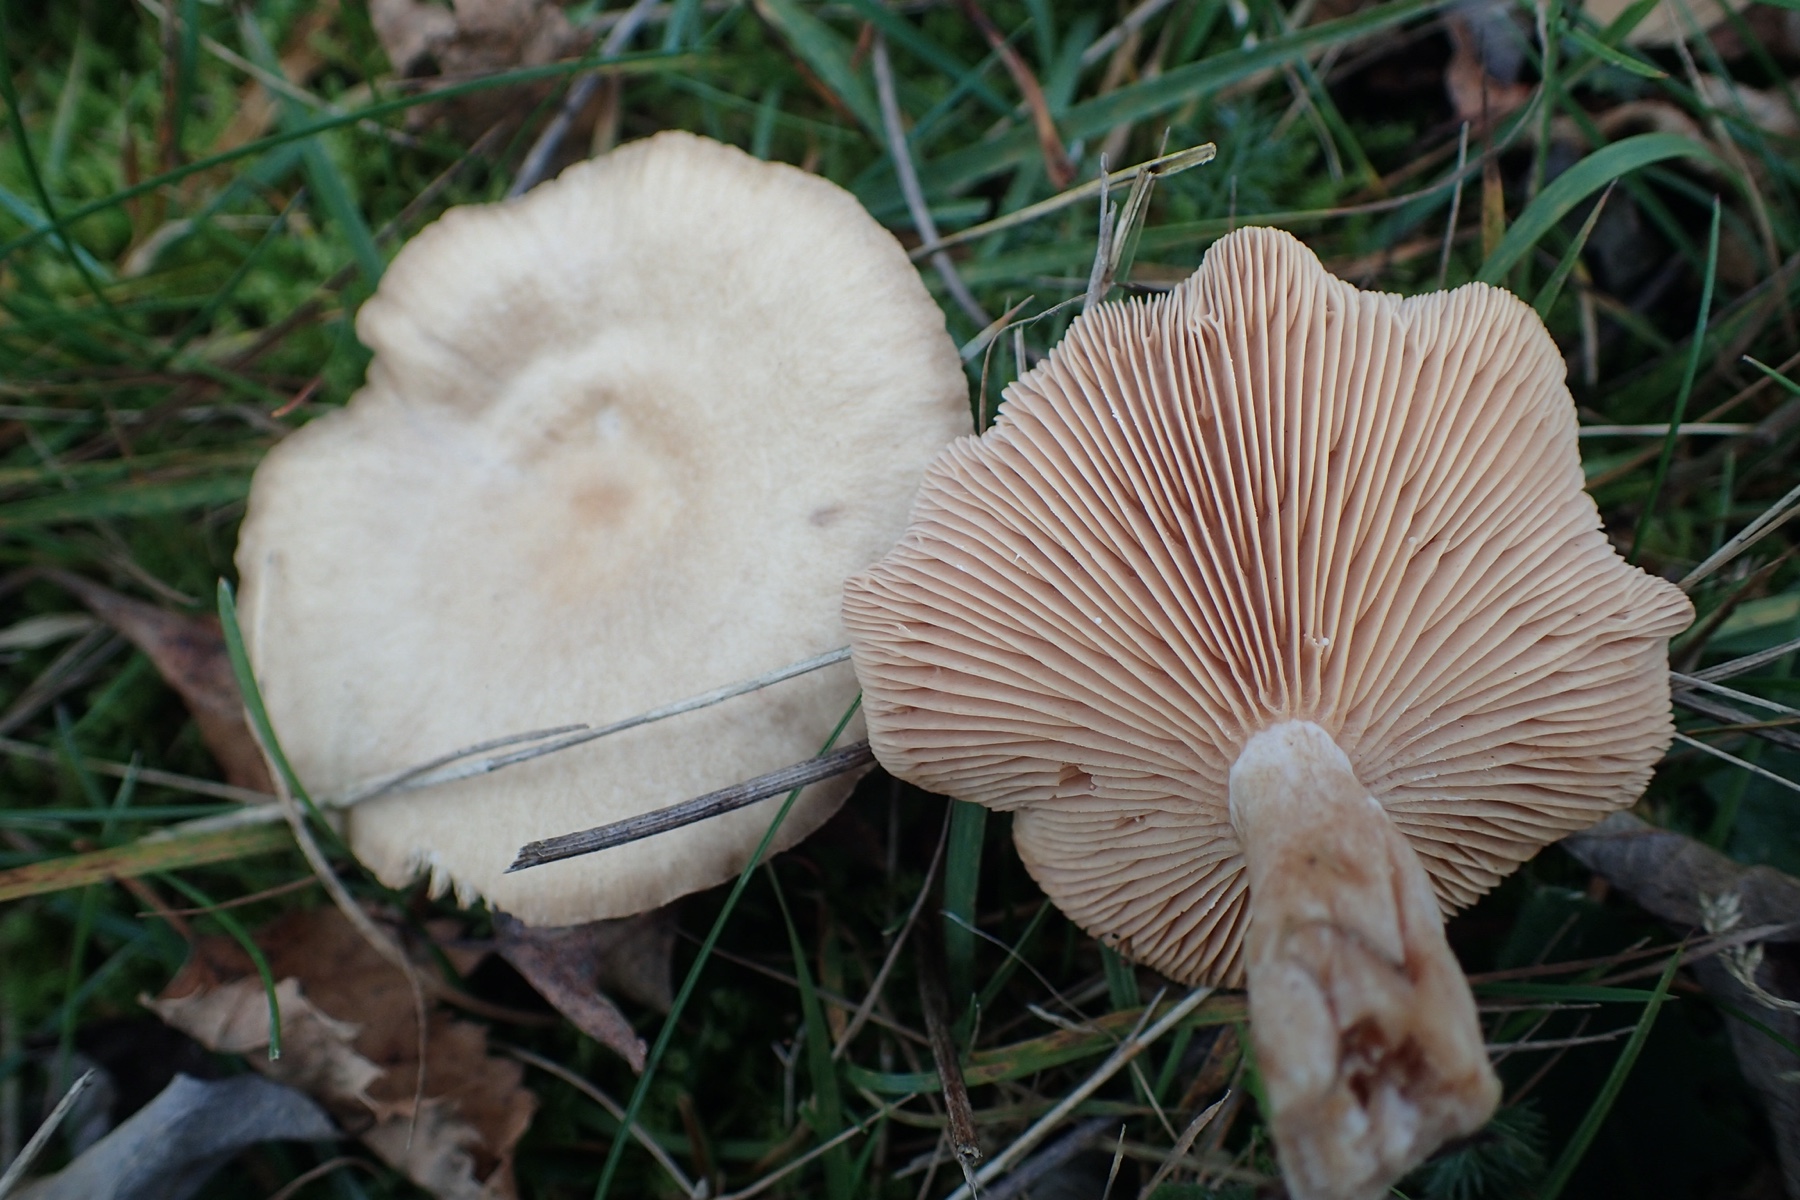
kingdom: Fungi
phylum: Basidiomycota
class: Agaricomycetes
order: Russulales
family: Russulaceae
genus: Lactarius
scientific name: Lactarius glyciosmus
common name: kokos-mælkehat
